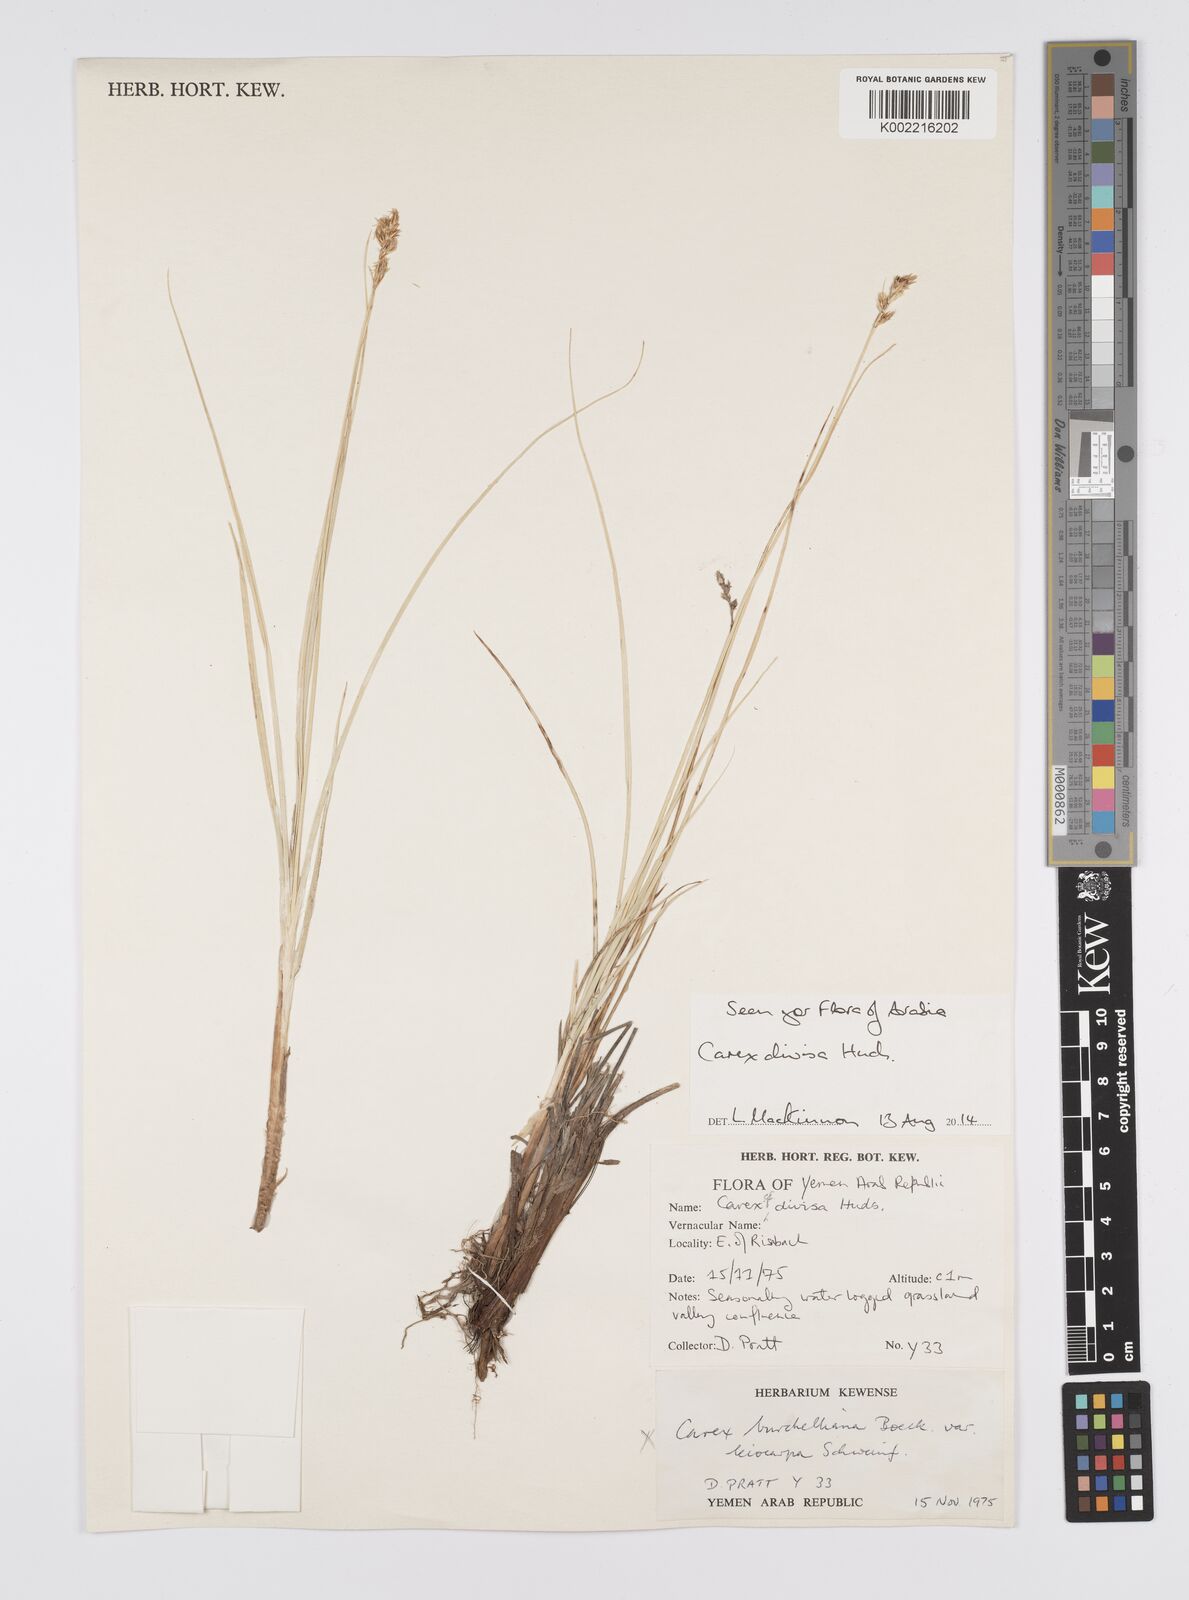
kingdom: Plantae
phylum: Tracheophyta
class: Liliopsida
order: Poales
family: Cyperaceae
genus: Carex
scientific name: Carex divisa
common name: Divided sedge
